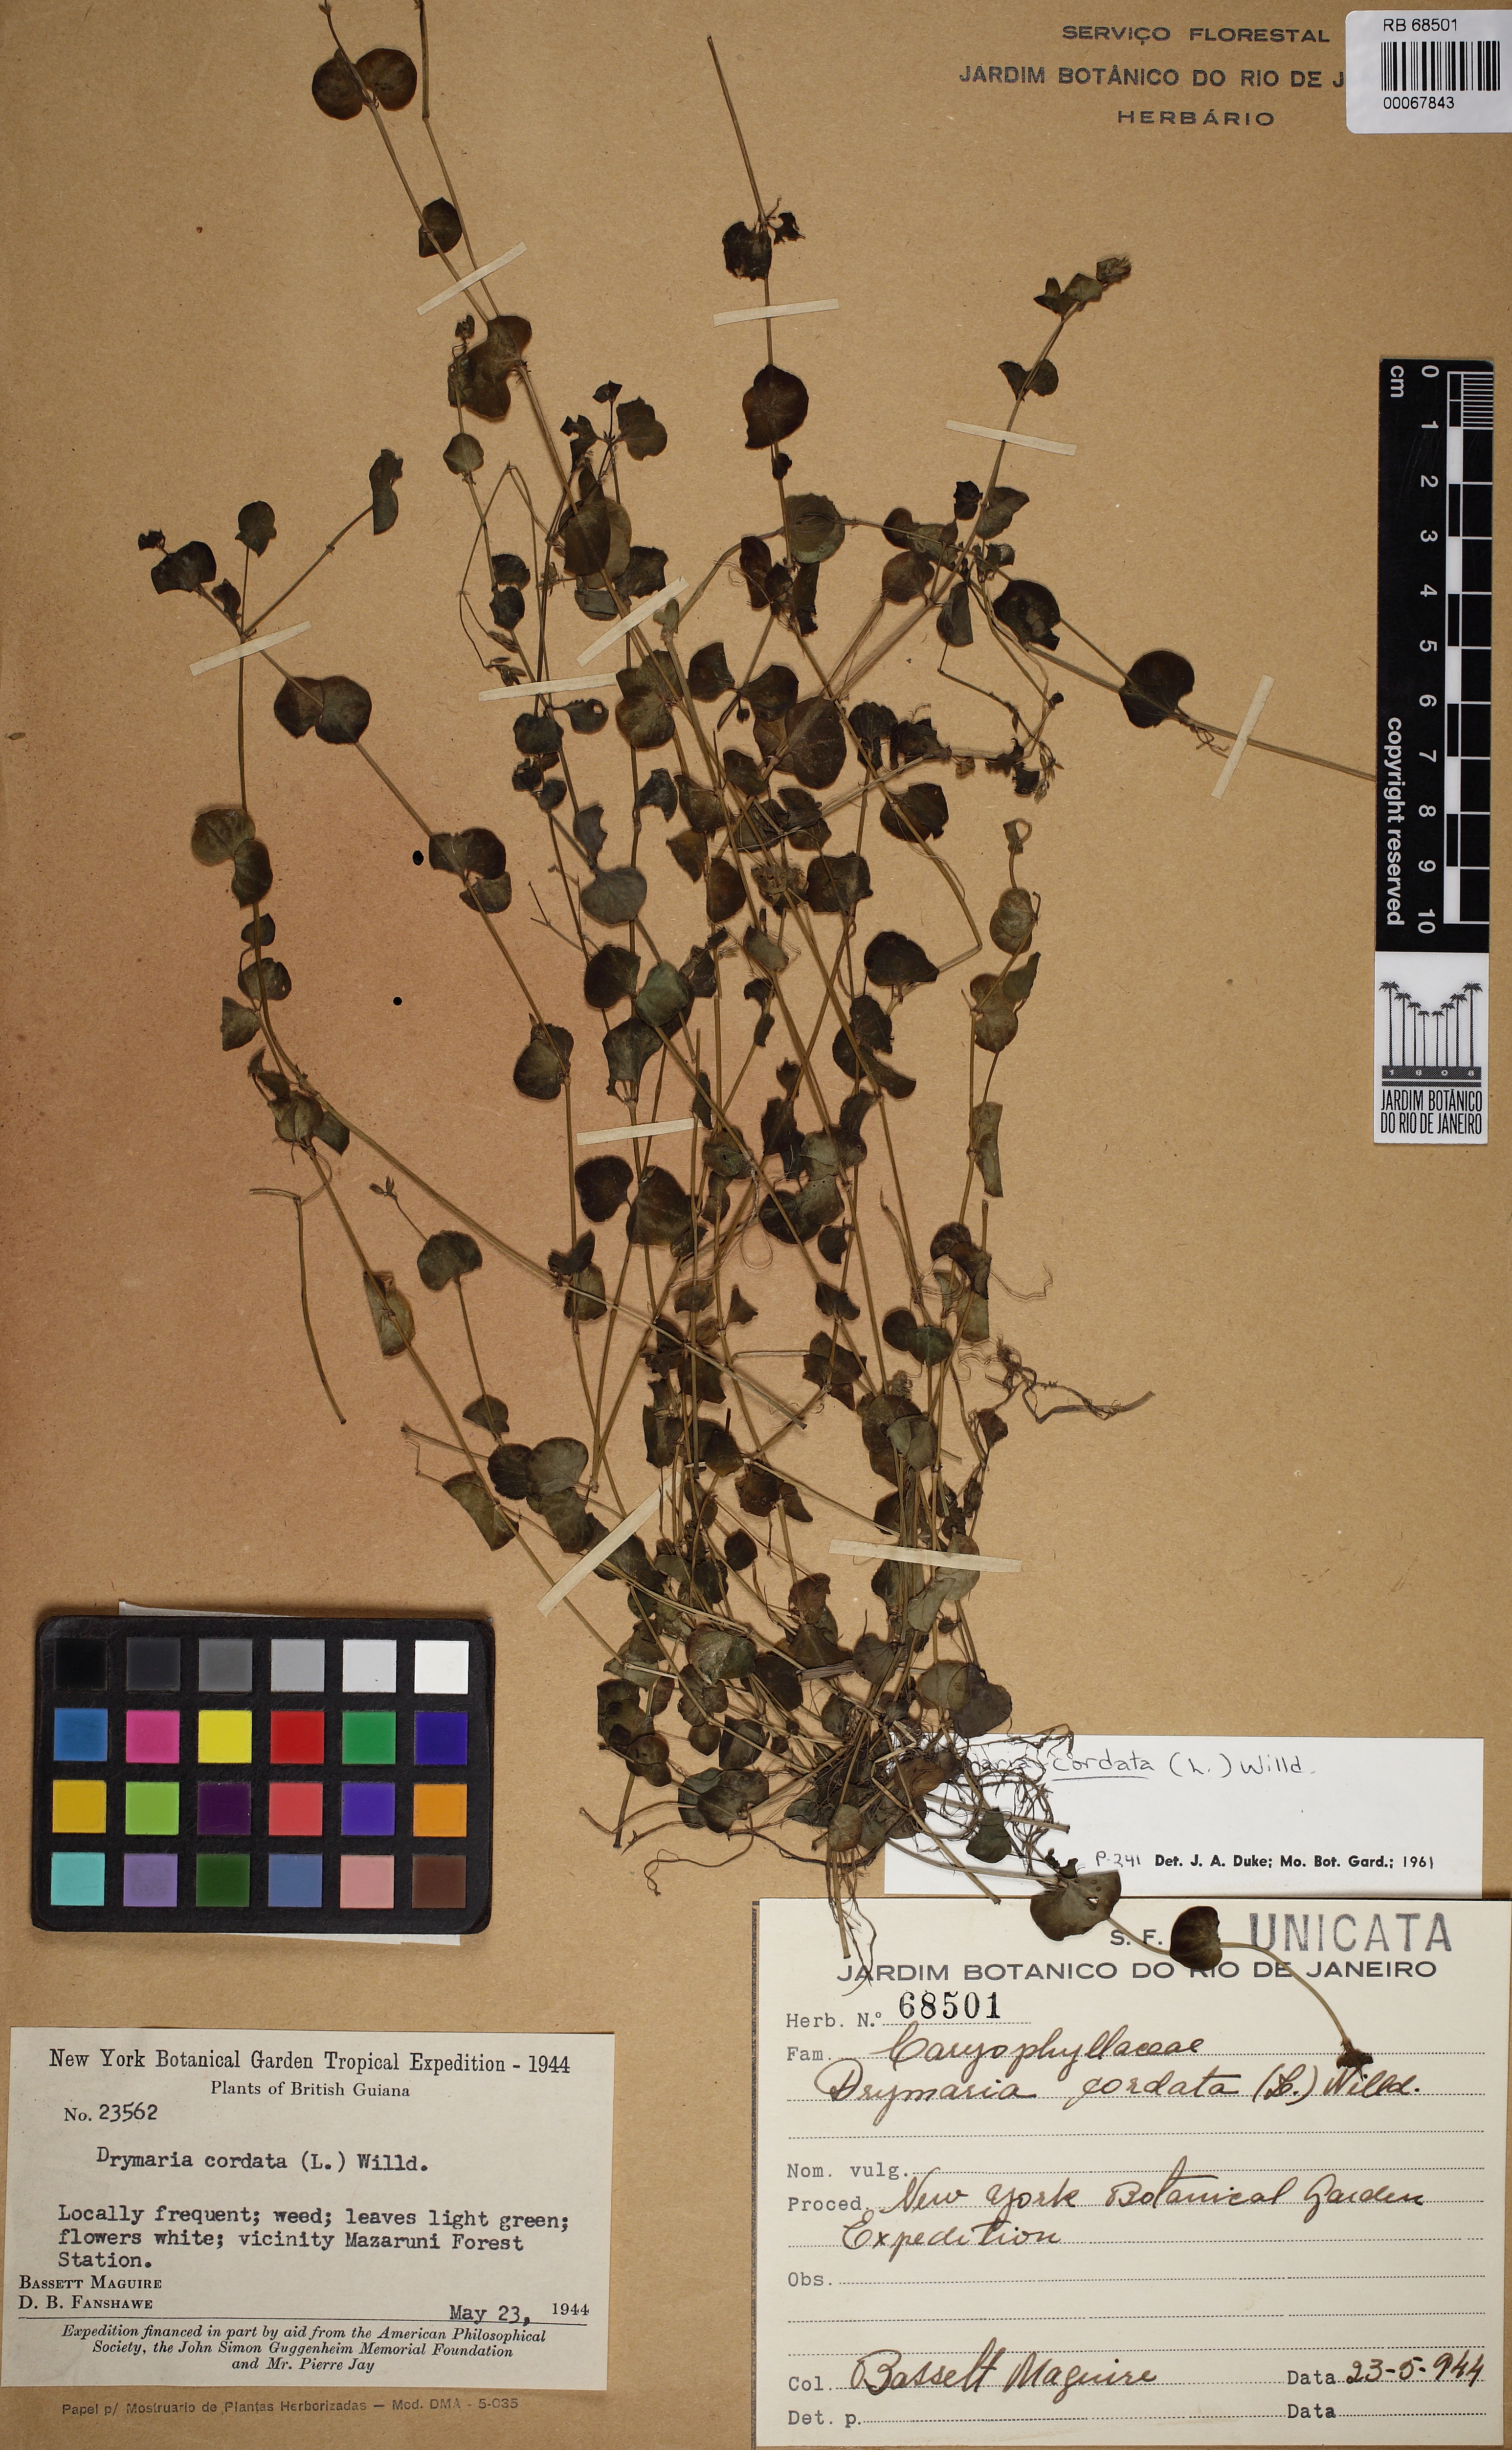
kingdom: Plantae
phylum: Tracheophyta
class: Magnoliopsida
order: Caryophyllales
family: Caryophyllaceae
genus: Drymaria
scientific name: Drymaria cordata
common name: Whitesnow
